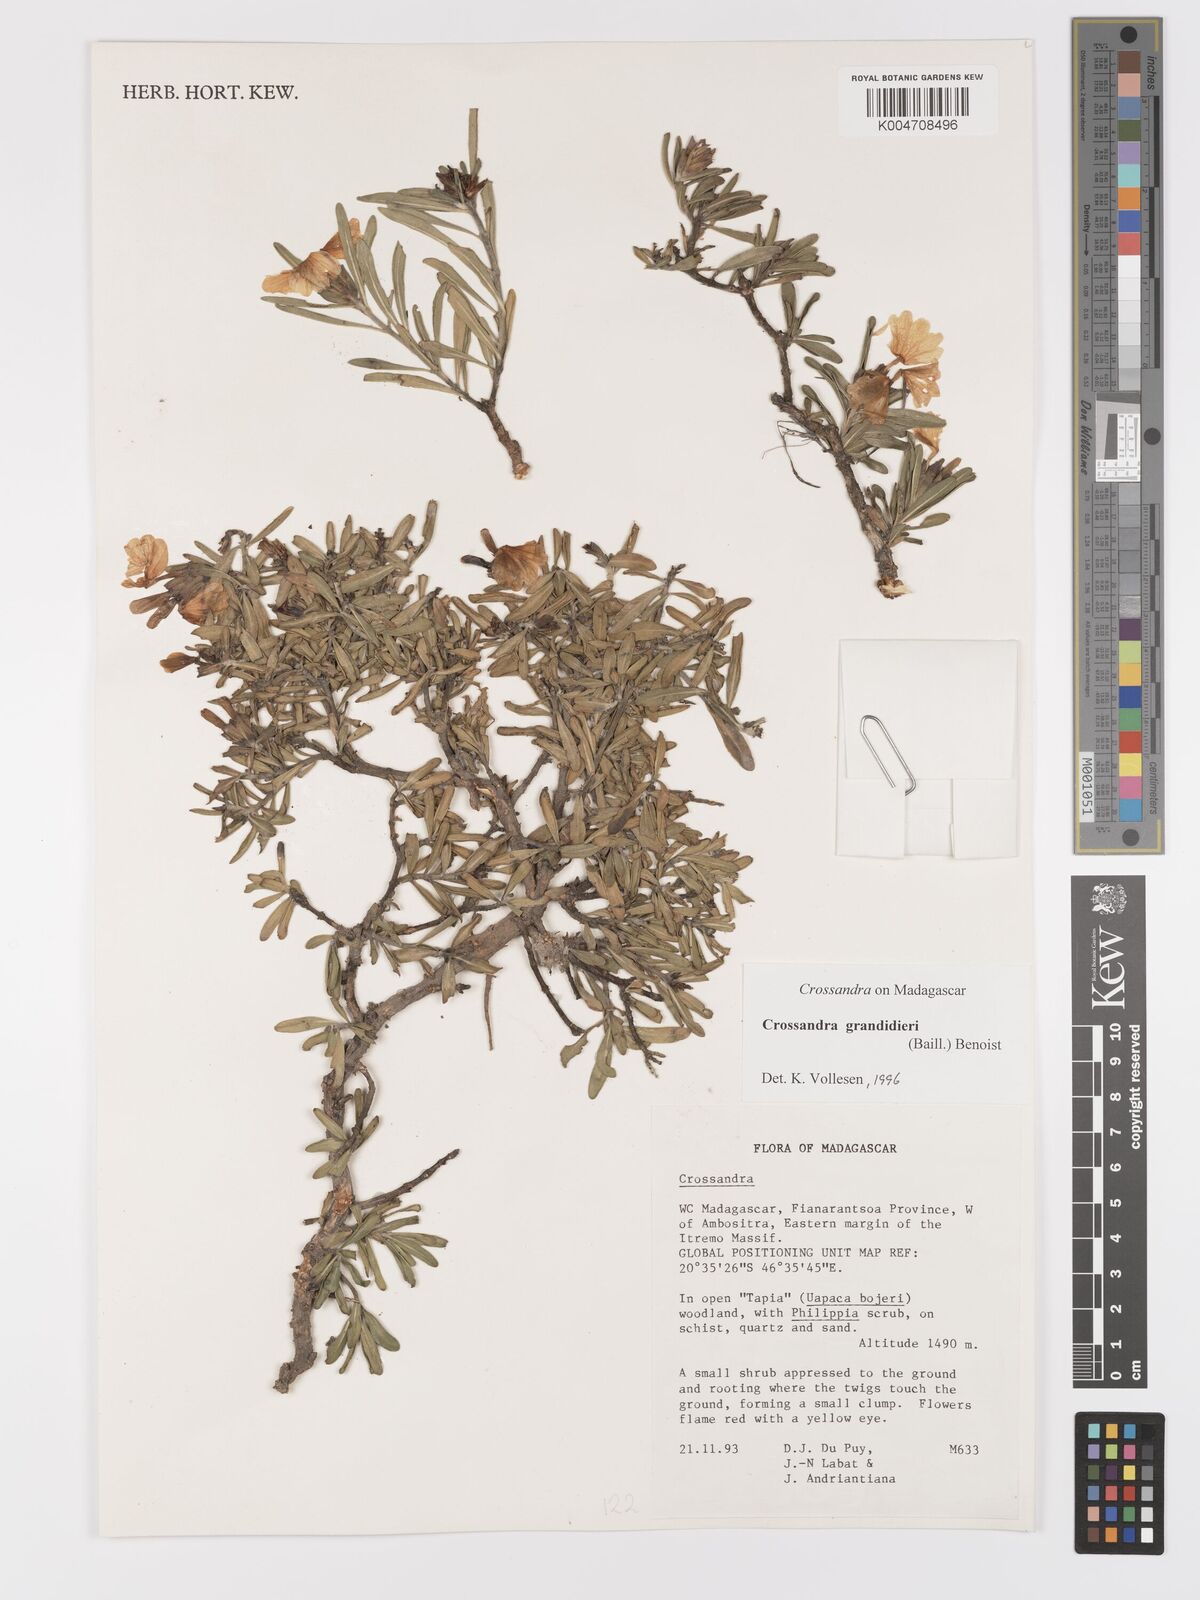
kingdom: Plantae
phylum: Tracheophyta
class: Magnoliopsida
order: Lamiales
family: Acanthaceae
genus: Crossandra
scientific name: Crossandra grandidieri
